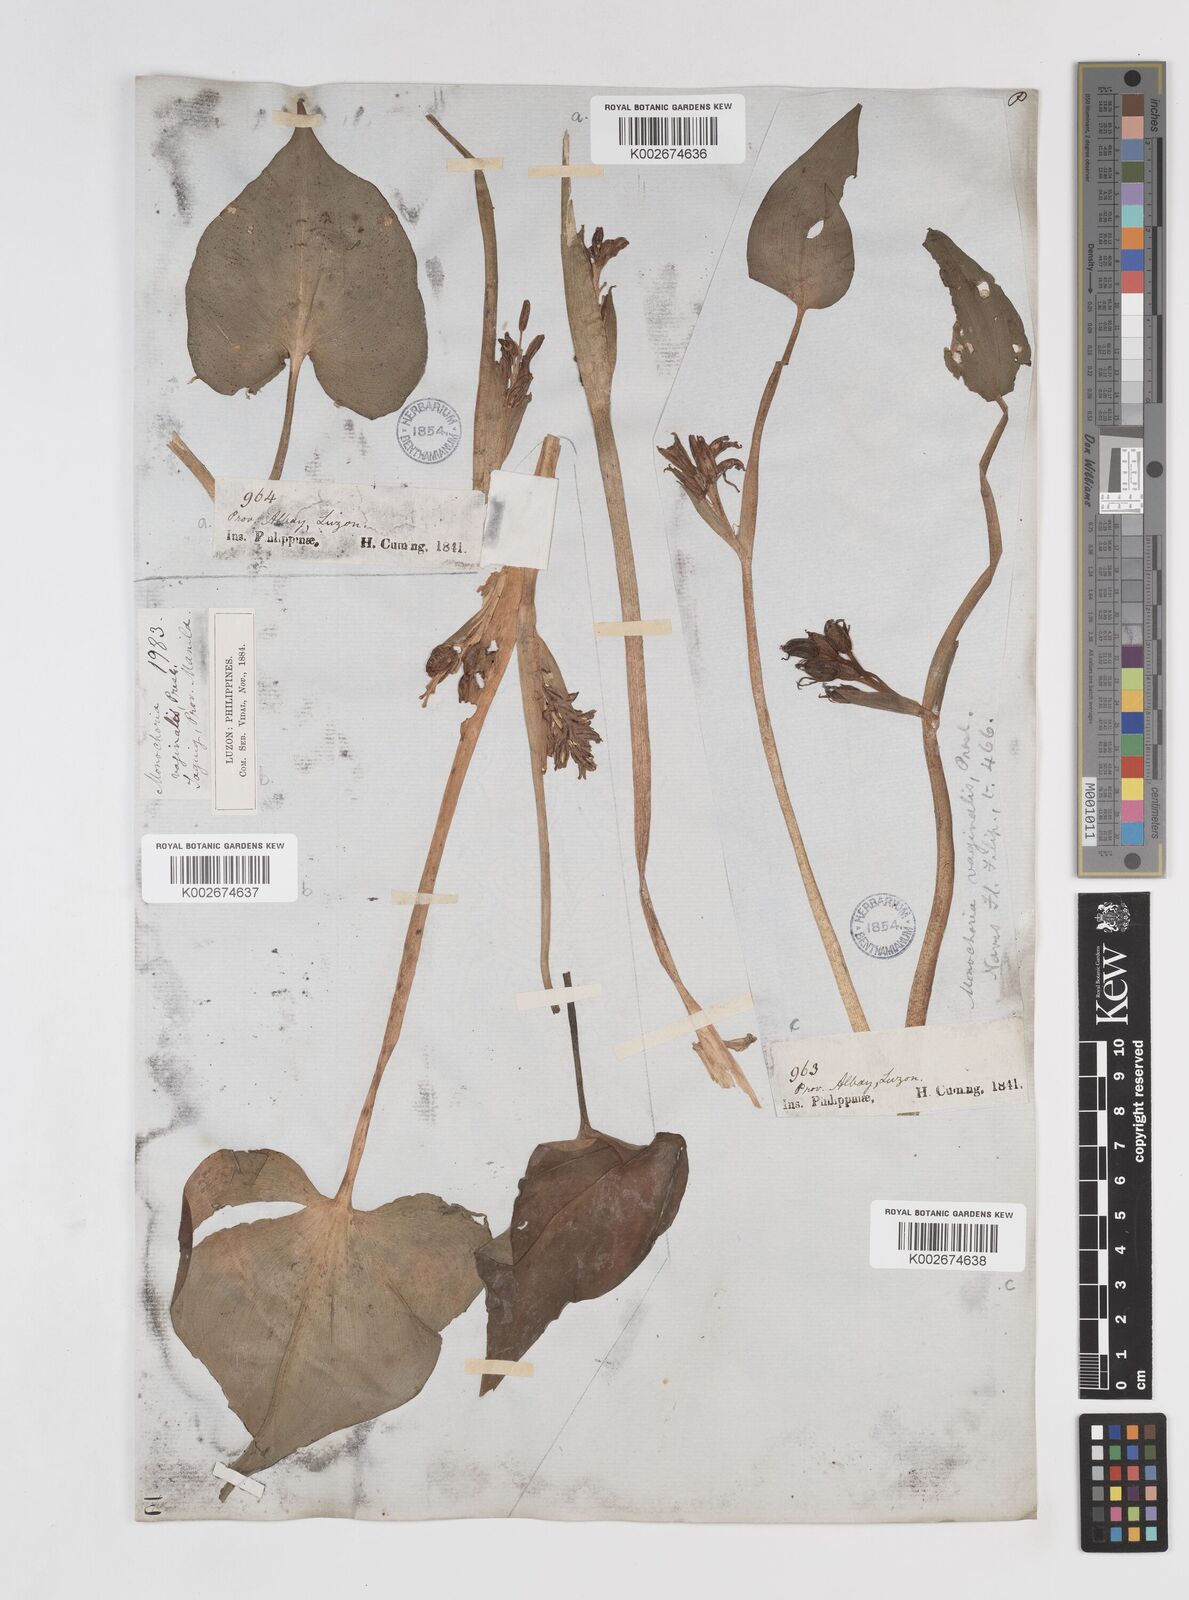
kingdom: Plantae
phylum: Tracheophyta
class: Liliopsida
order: Commelinales
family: Pontederiaceae
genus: Pontederia
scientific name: Pontederia vaginalis
